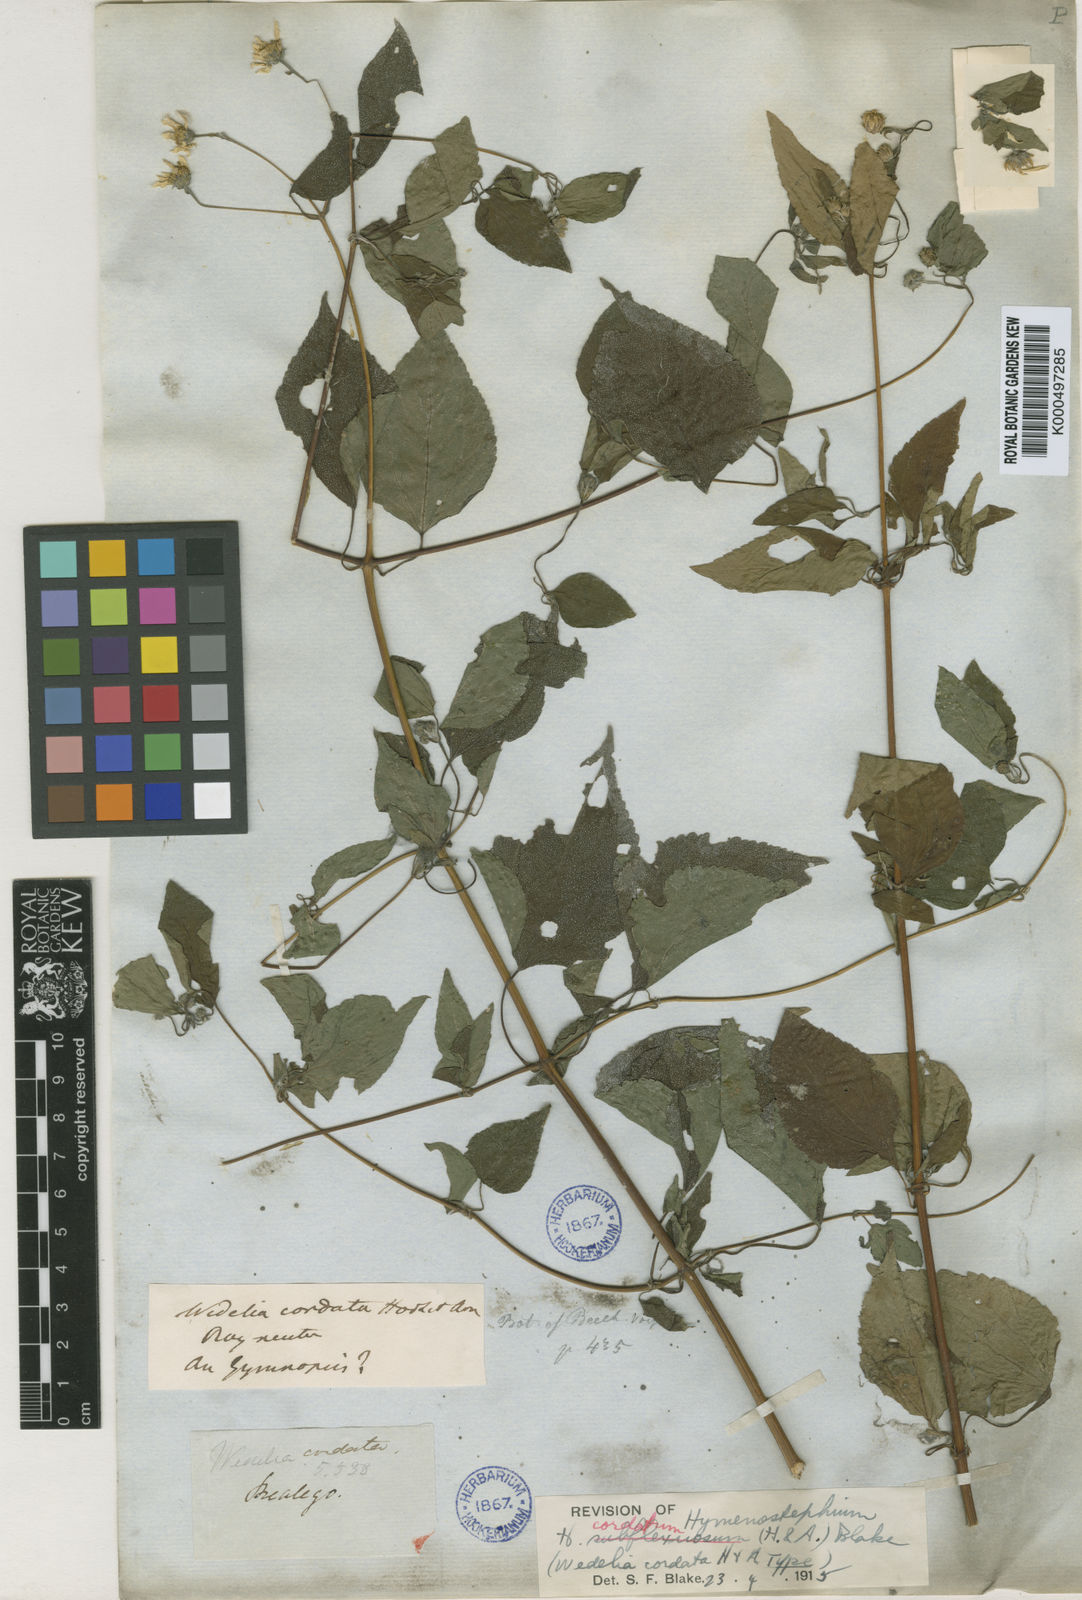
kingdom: Plantae
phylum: Tracheophyta
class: Magnoliopsida
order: Asterales
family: Asteraceae
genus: Hymenostephium
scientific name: Hymenostephium cordatum
